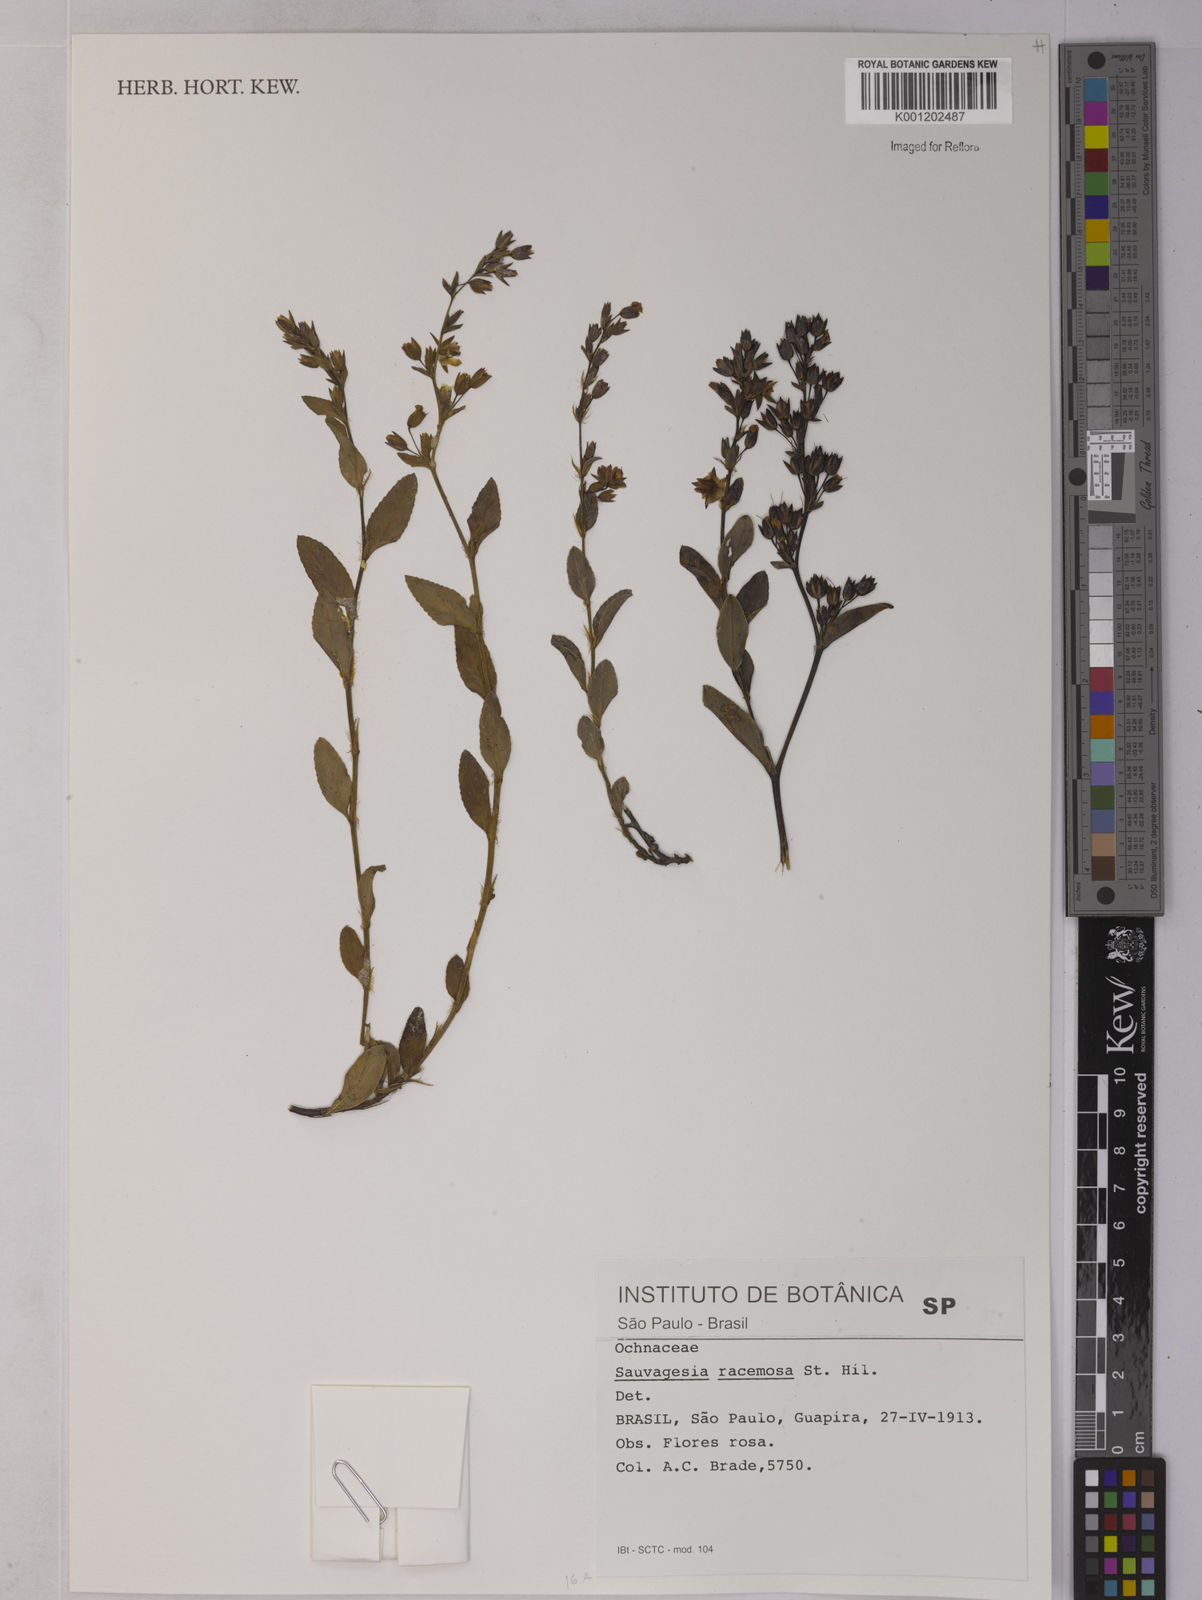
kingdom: Plantae
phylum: Tracheophyta
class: Magnoliopsida
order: Malpighiales
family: Ochnaceae
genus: Sauvagesia
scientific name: Sauvagesia racemosa
